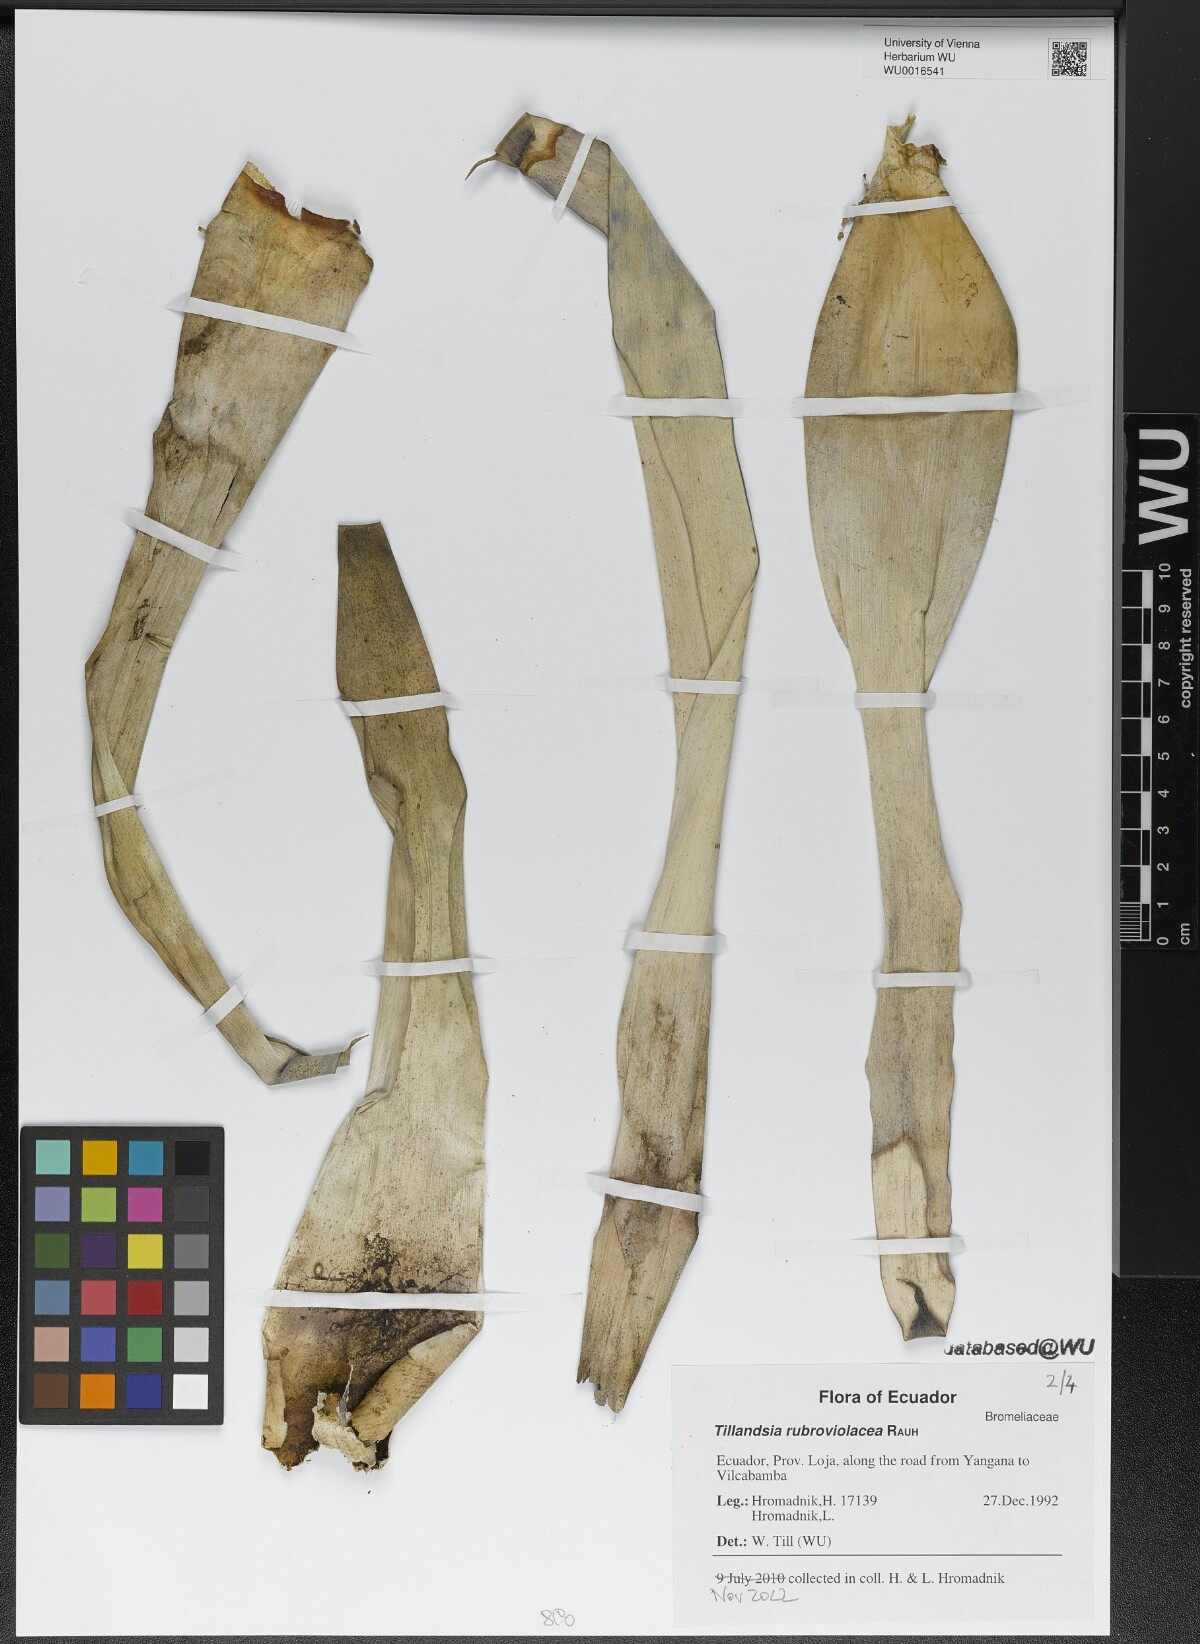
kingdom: Plantae
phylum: Tracheophyta
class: Liliopsida
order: Poales
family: Bromeliaceae
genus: Tillandsia
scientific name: Tillandsia rubroviolacea
